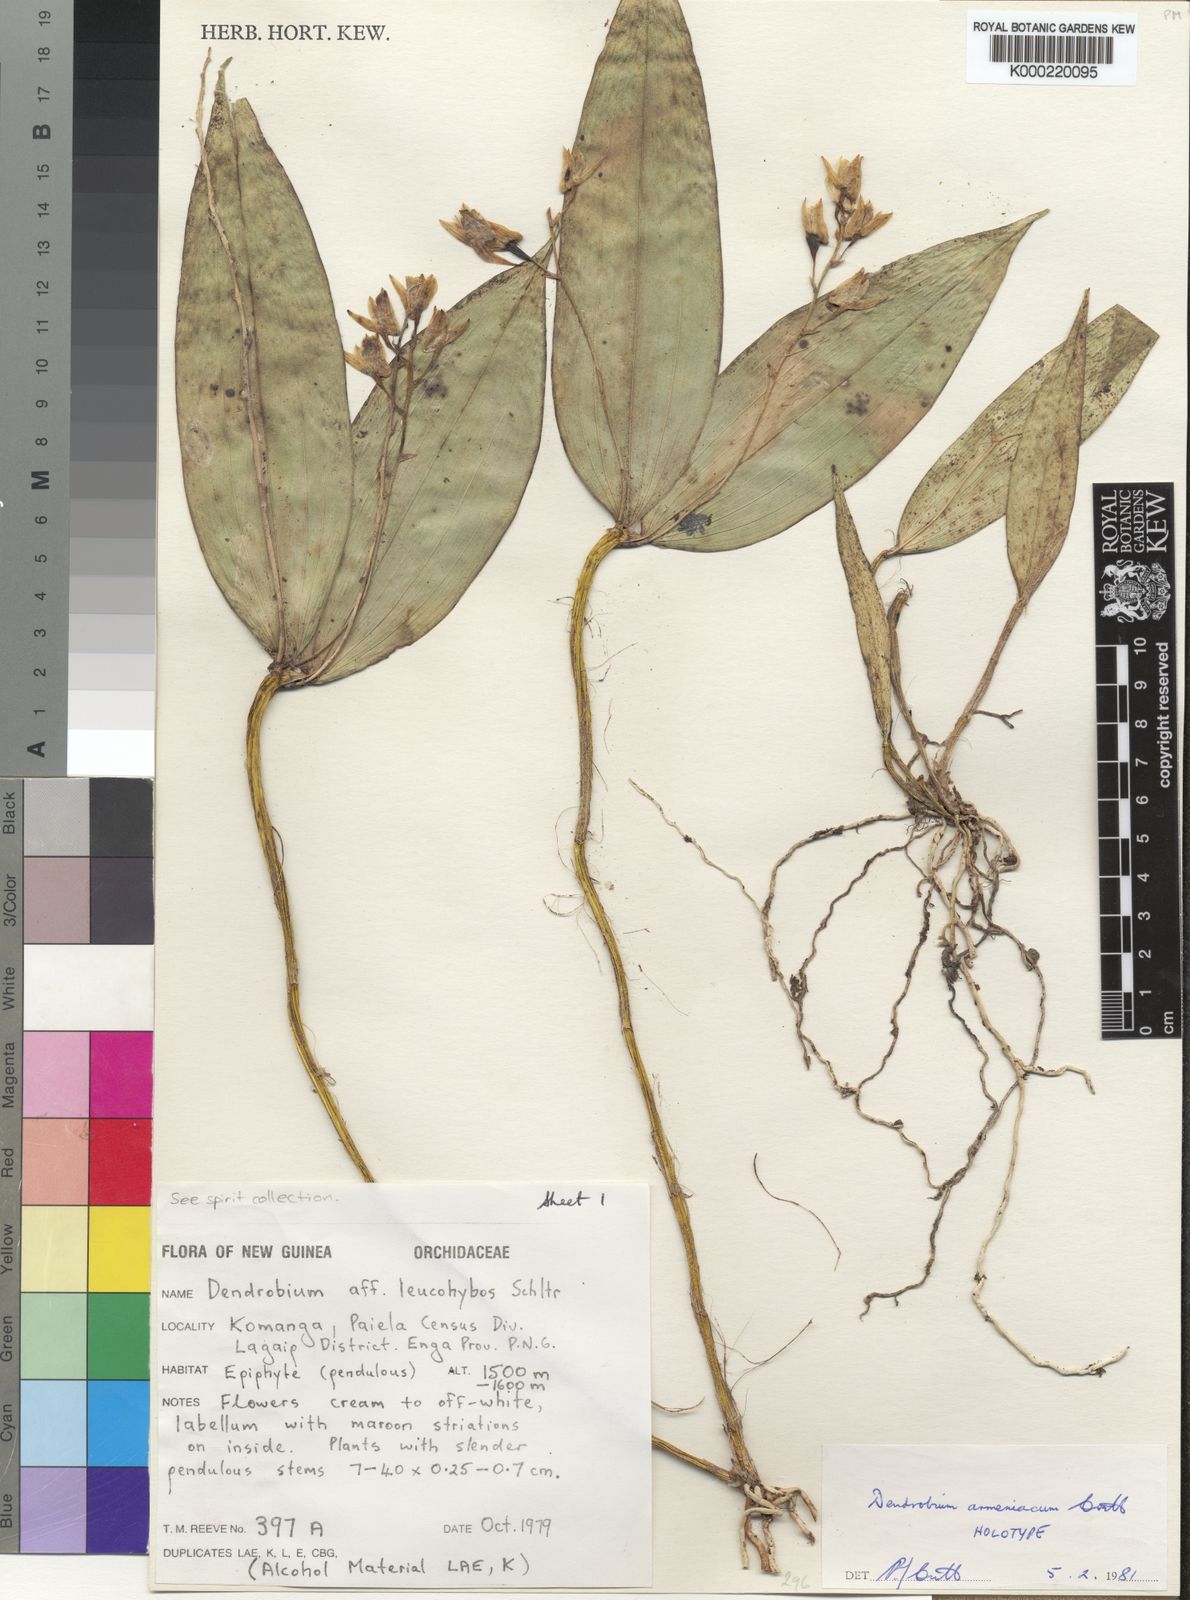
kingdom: Plantae
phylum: Tracheophyta
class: Liliopsida
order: Asparagales
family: Orchidaceae
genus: Dendrobium
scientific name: Dendrobium armeniacum
